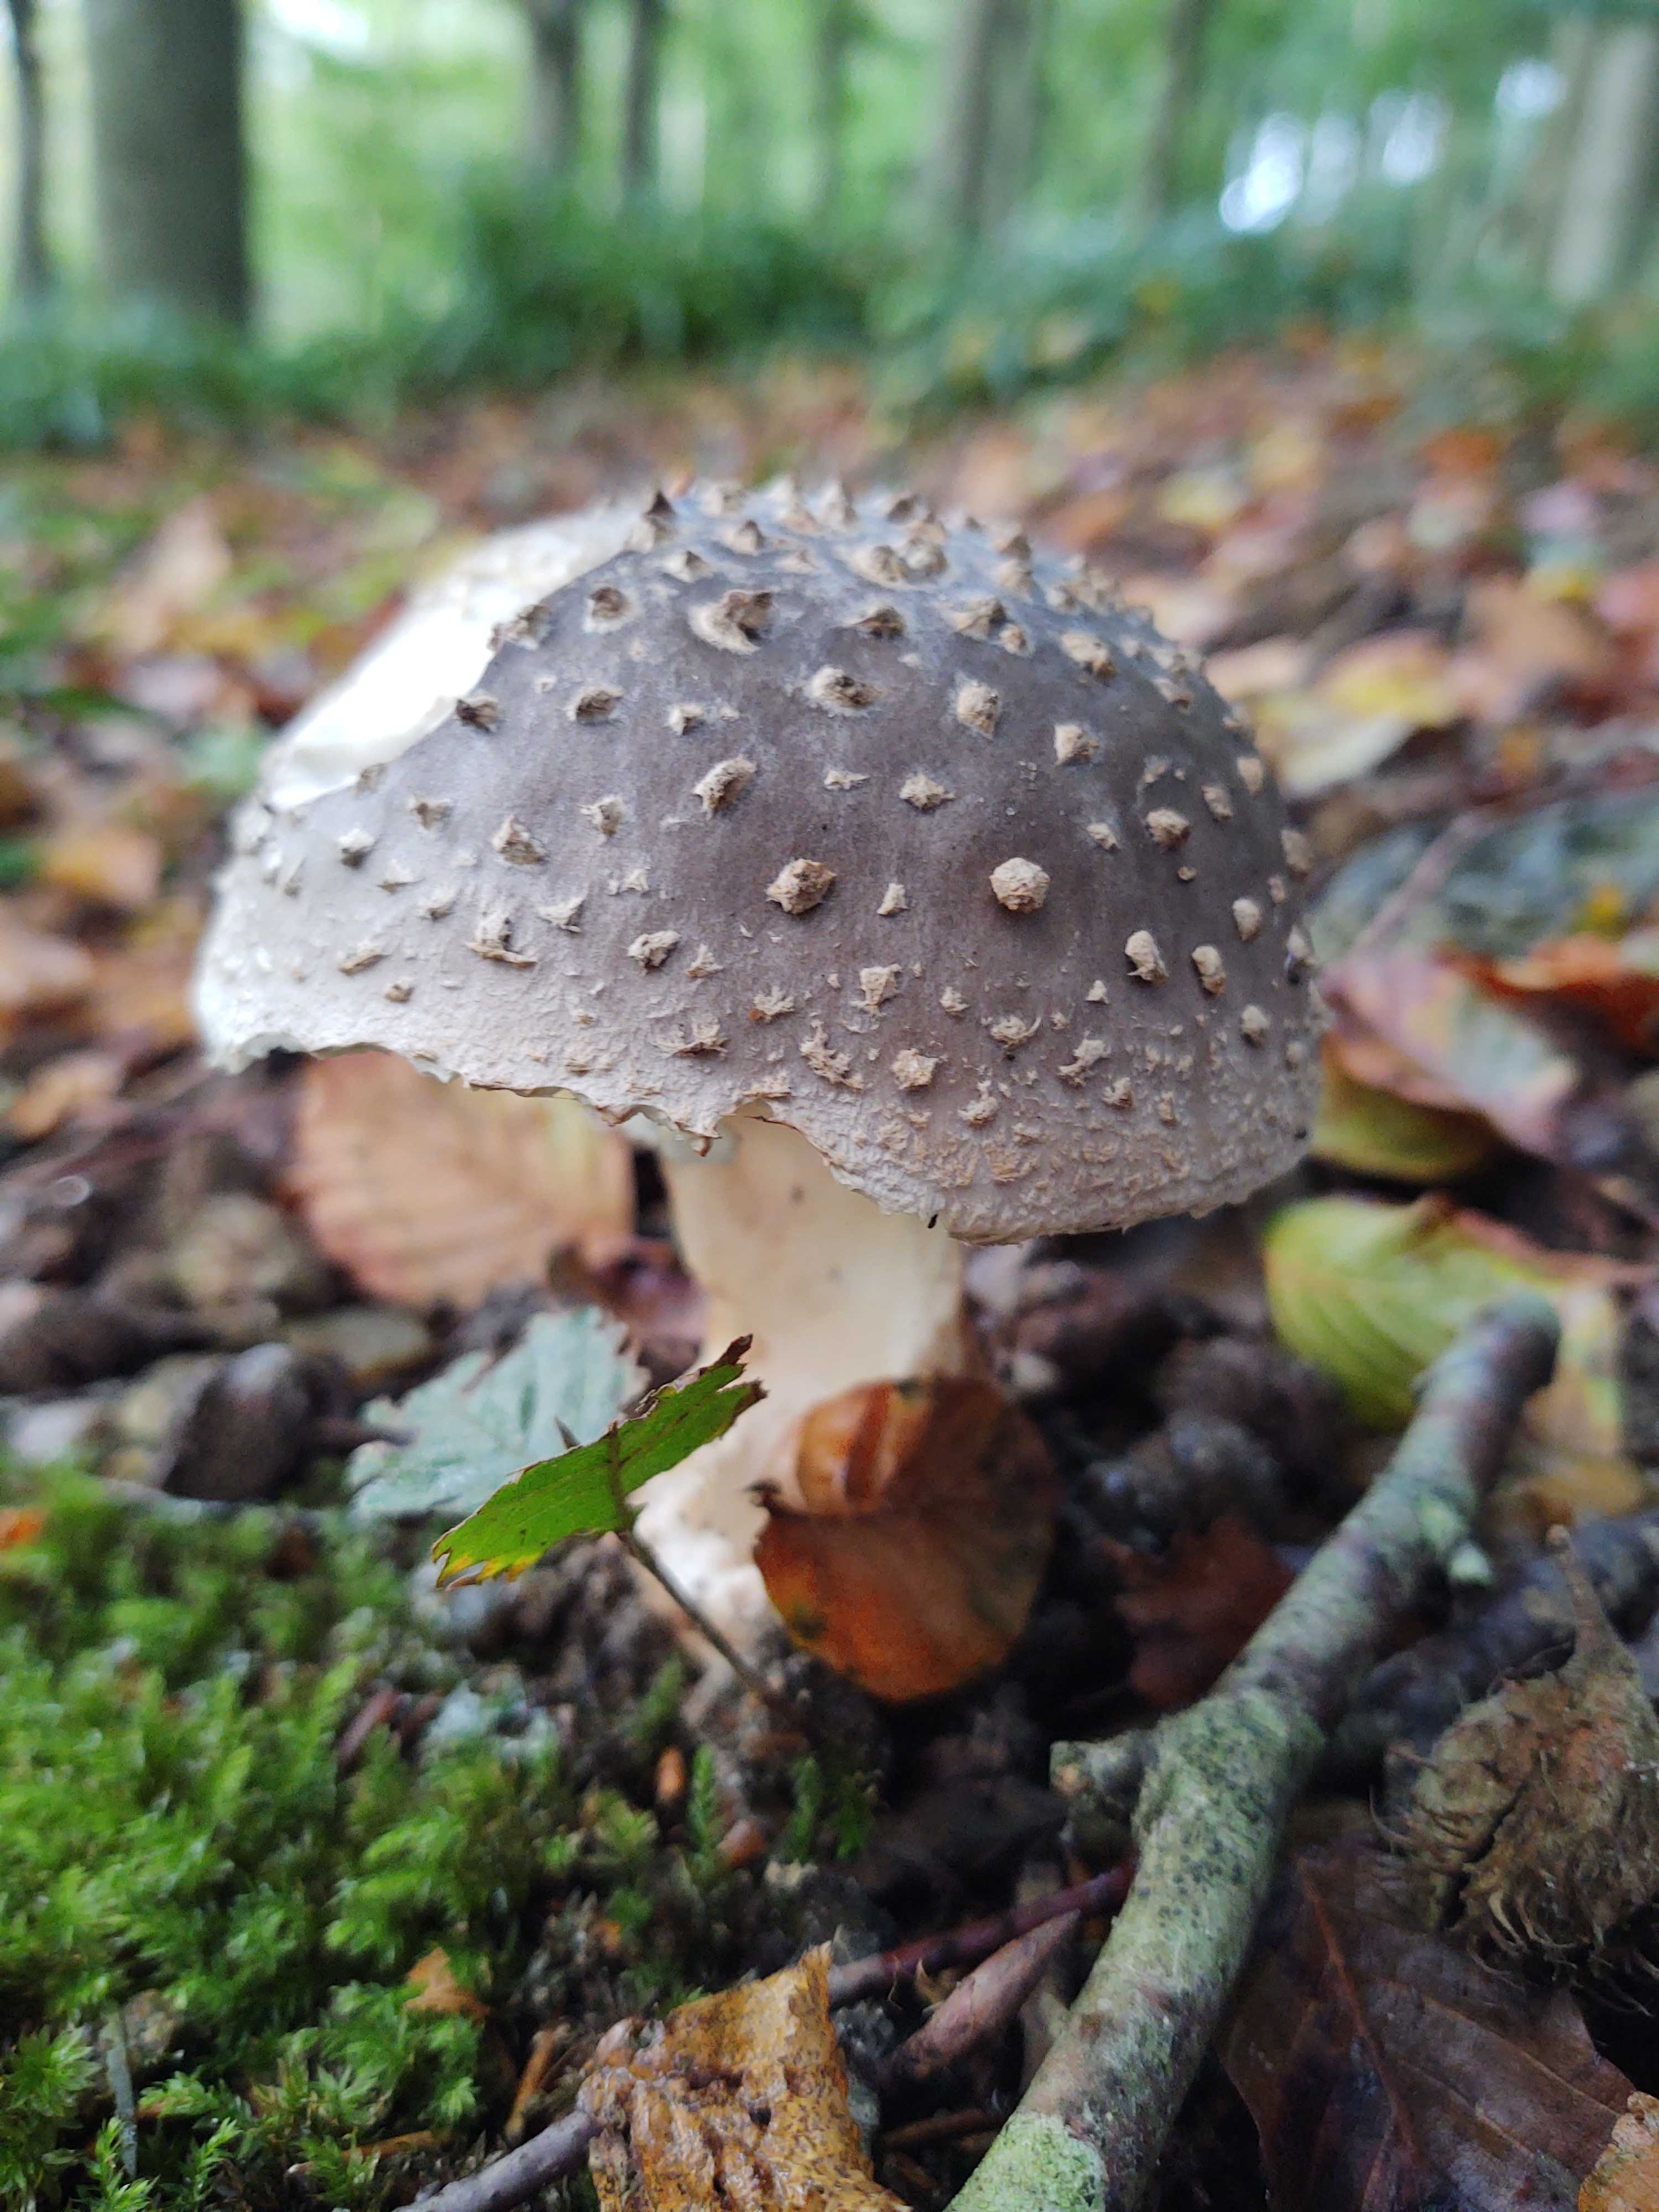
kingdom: Fungi
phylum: Basidiomycota
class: Agaricomycetes
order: Agaricales
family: Amanitaceae
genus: Amanita
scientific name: Amanita
